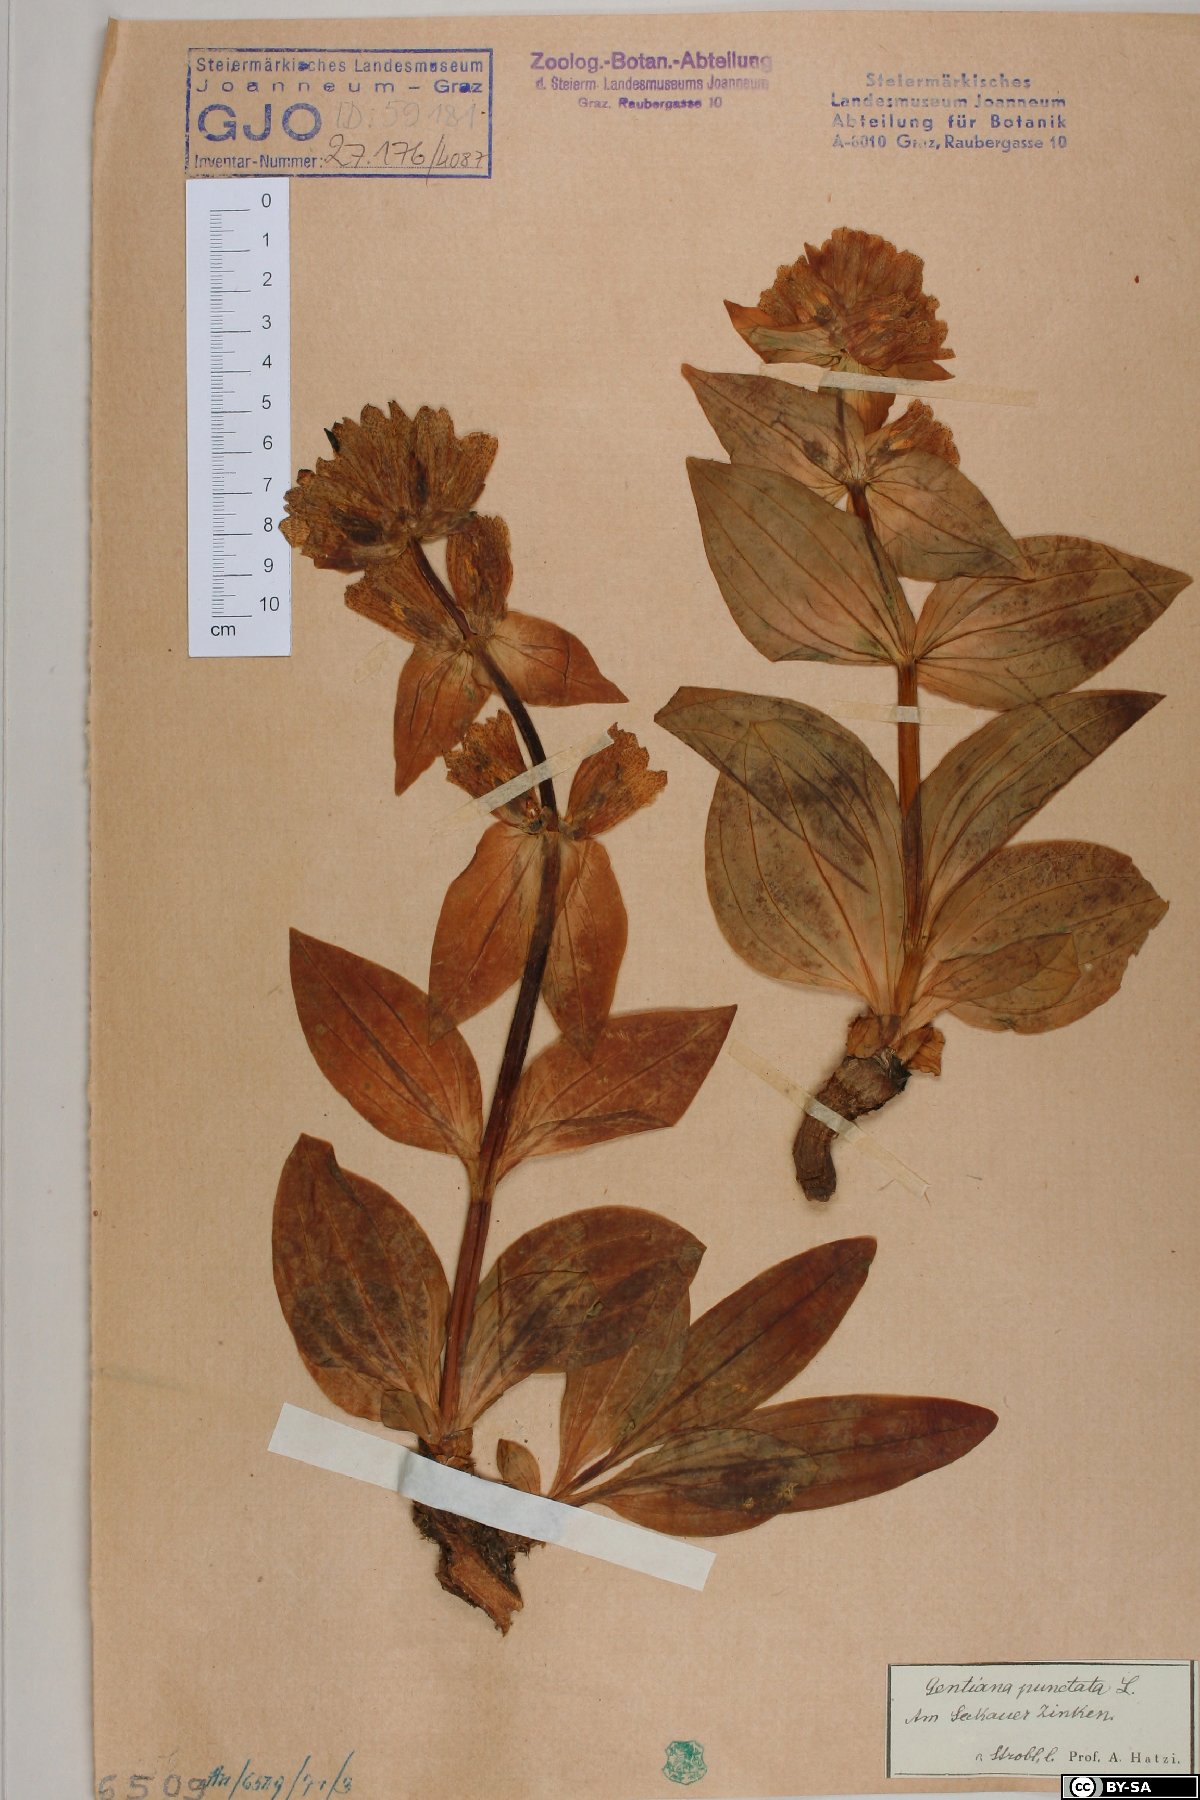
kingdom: Plantae
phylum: Tracheophyta
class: Magnoliopsida
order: Gentianales
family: Gentianaceae
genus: Gentiana
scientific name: Gentiana punctata
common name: Spotted gentian
